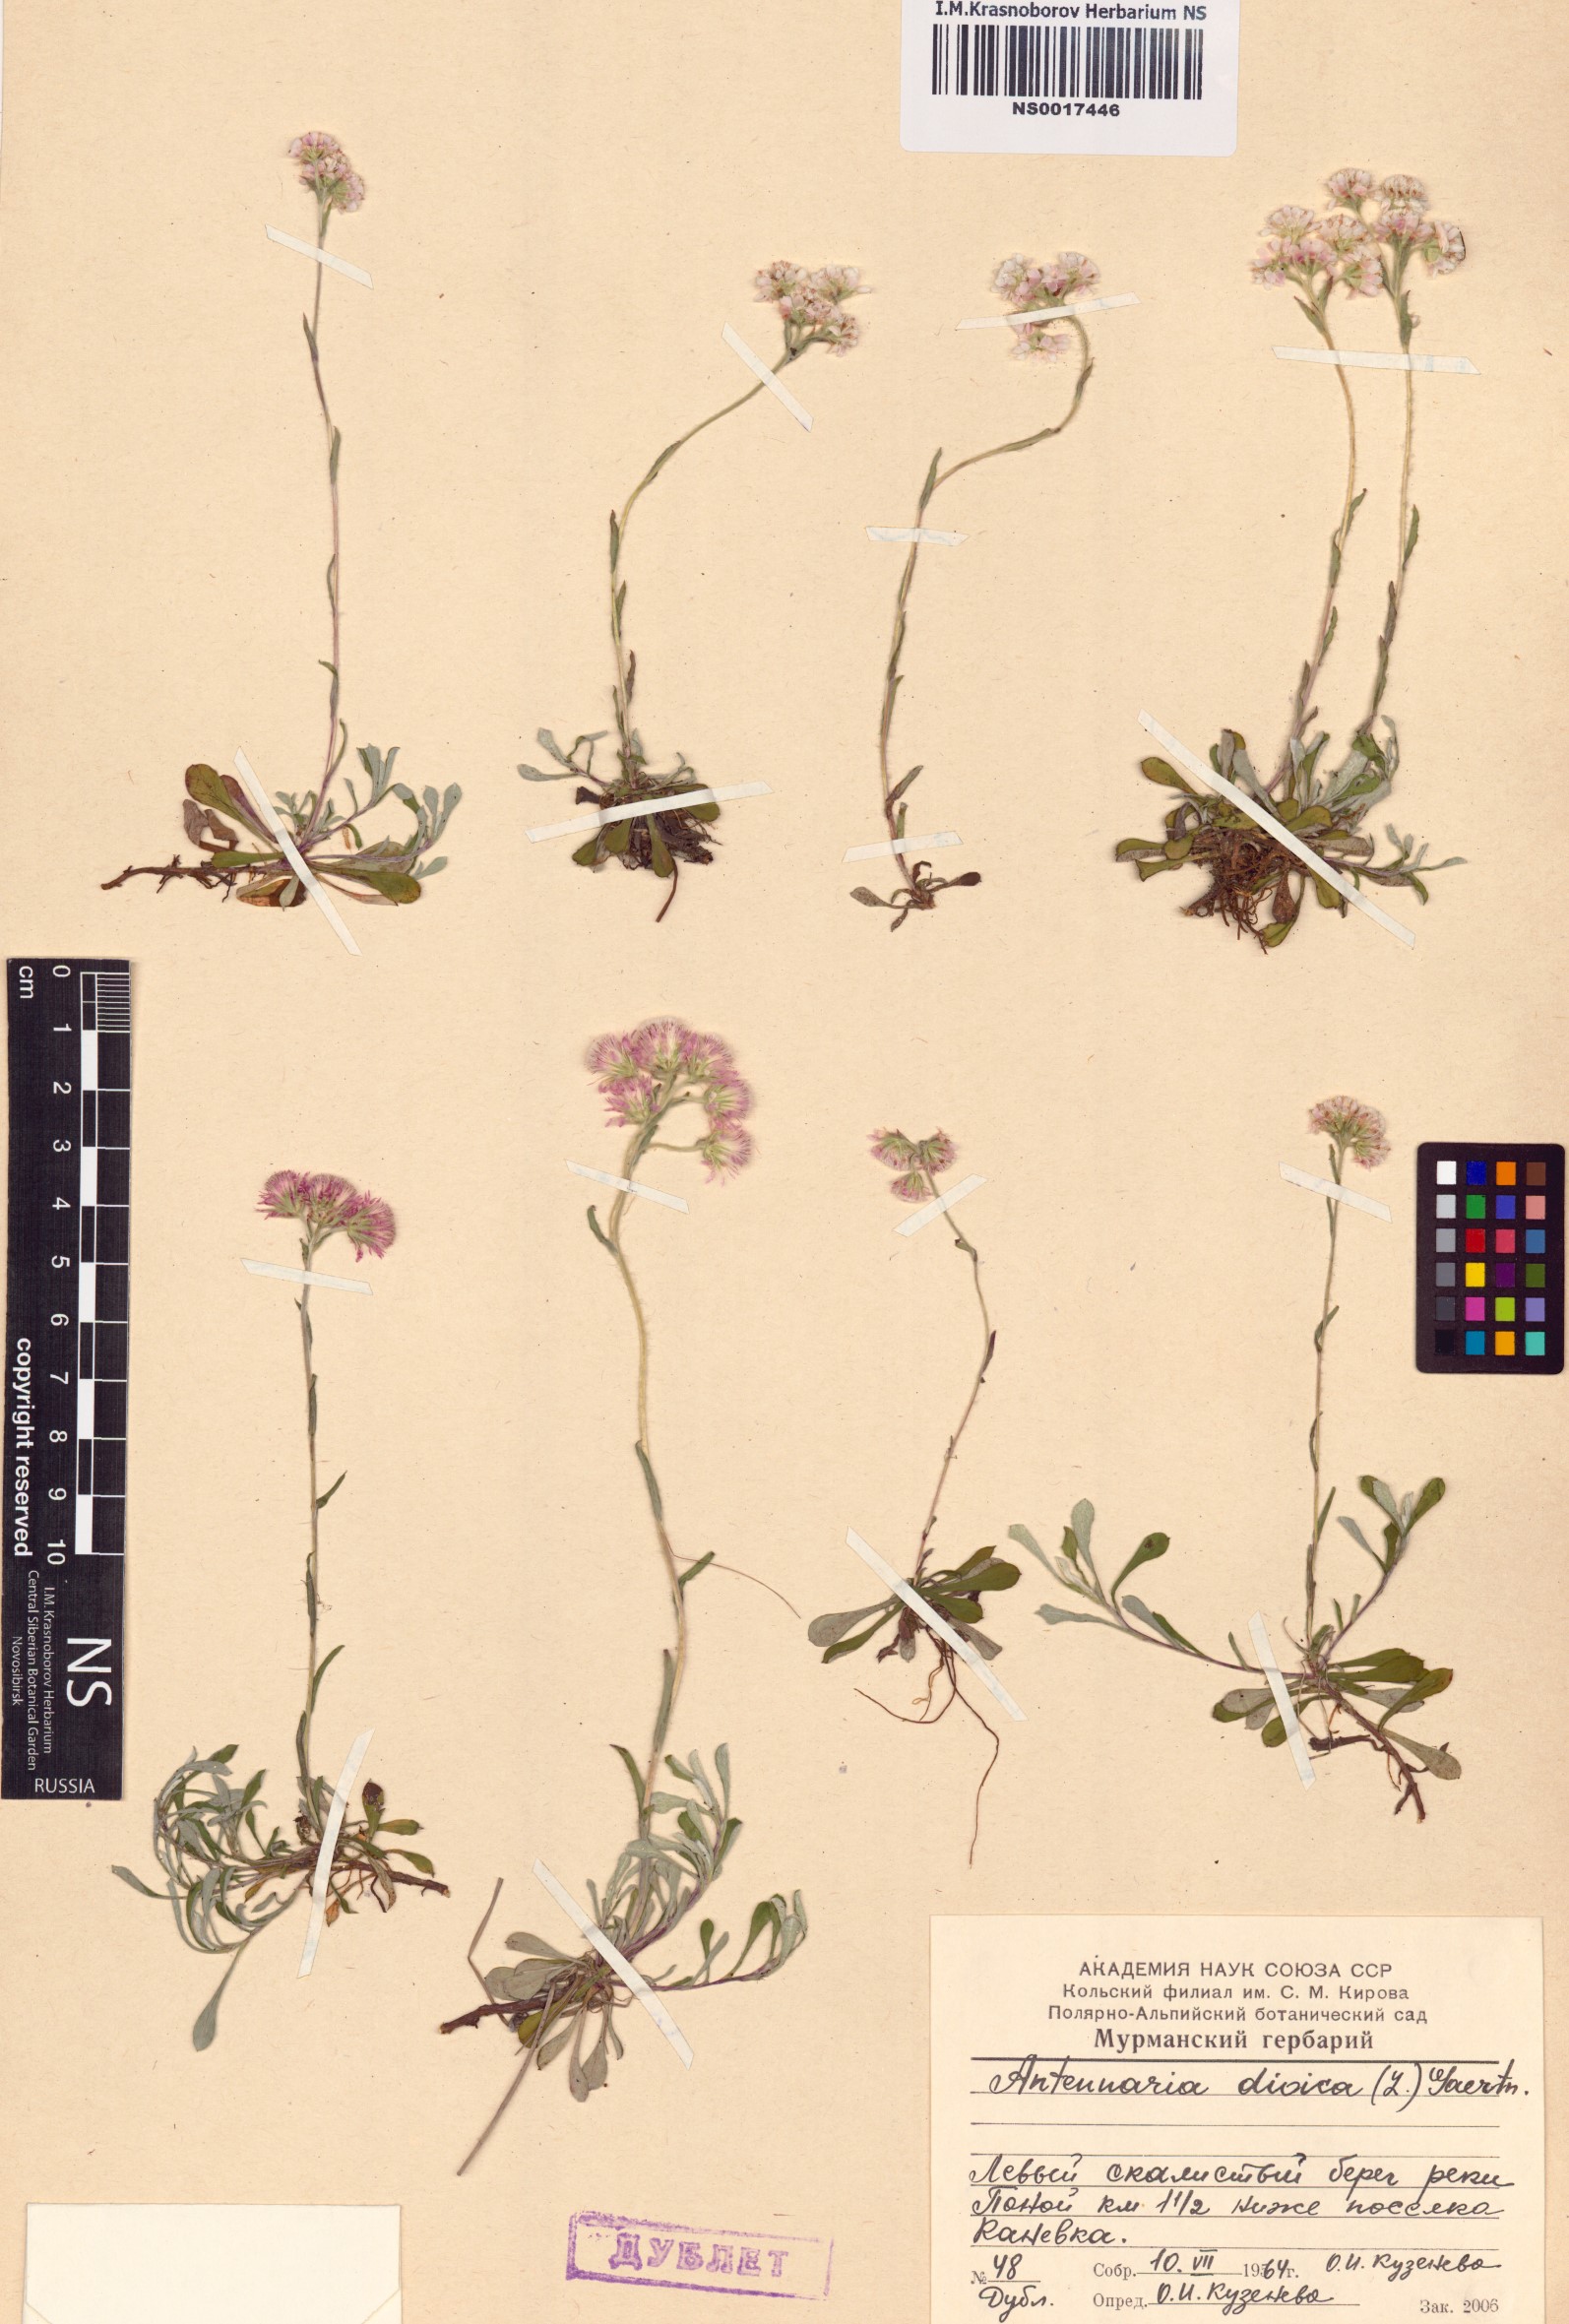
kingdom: Plantae
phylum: Tracheophyta
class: Magnoliopsida
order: Asterales
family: Asteraceae
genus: Antennaria
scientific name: Antennaria dioica
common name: Mountain everlasting
